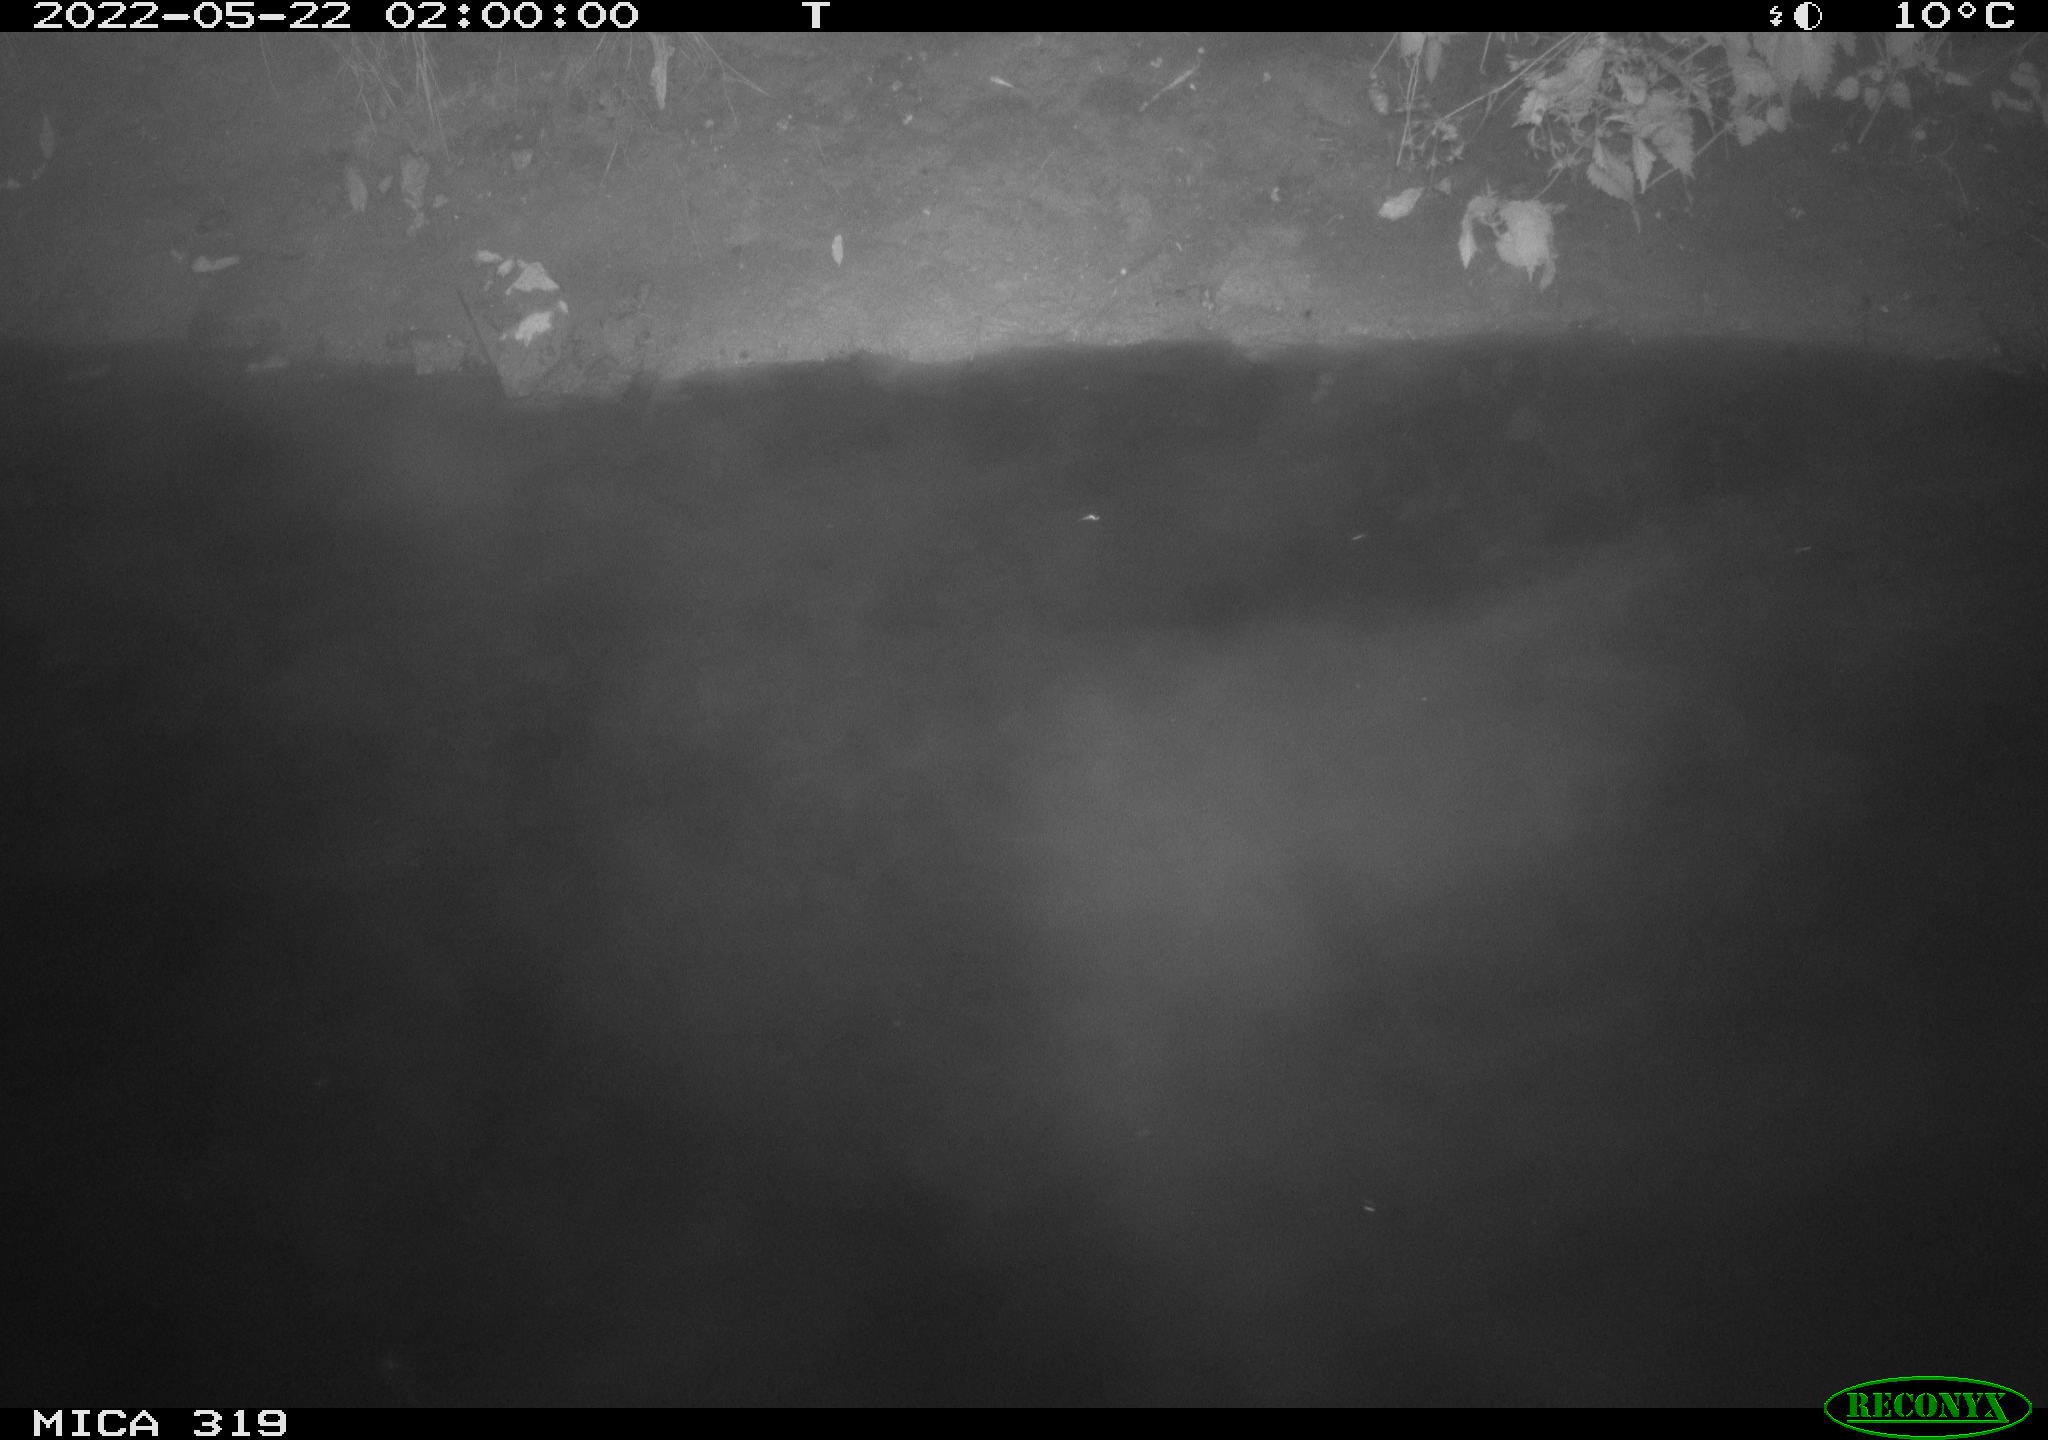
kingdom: Animalia
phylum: Chordata
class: Mammalia
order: Artiodactyla
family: Suidae
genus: Sus
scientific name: Sus scrofa
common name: Wild boar
